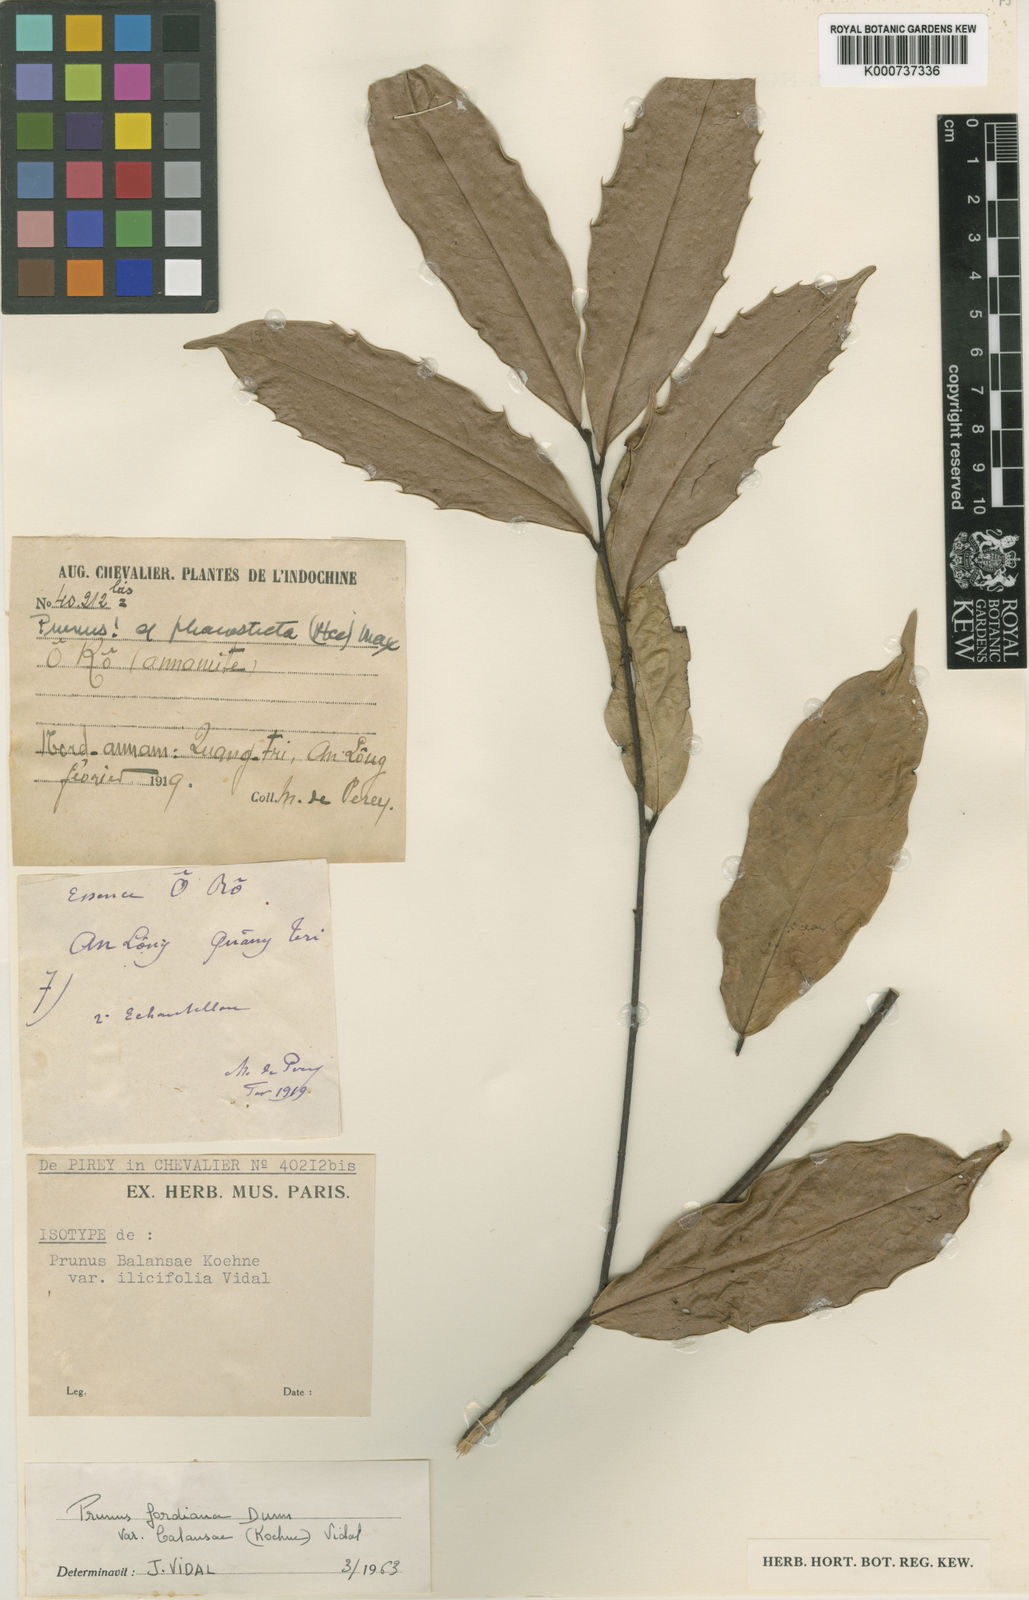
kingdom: Plantae
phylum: Tracheophyta
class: Magnoliopsida
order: Rosales
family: Rosaceae
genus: Prunus
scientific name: Prunus fordiana
